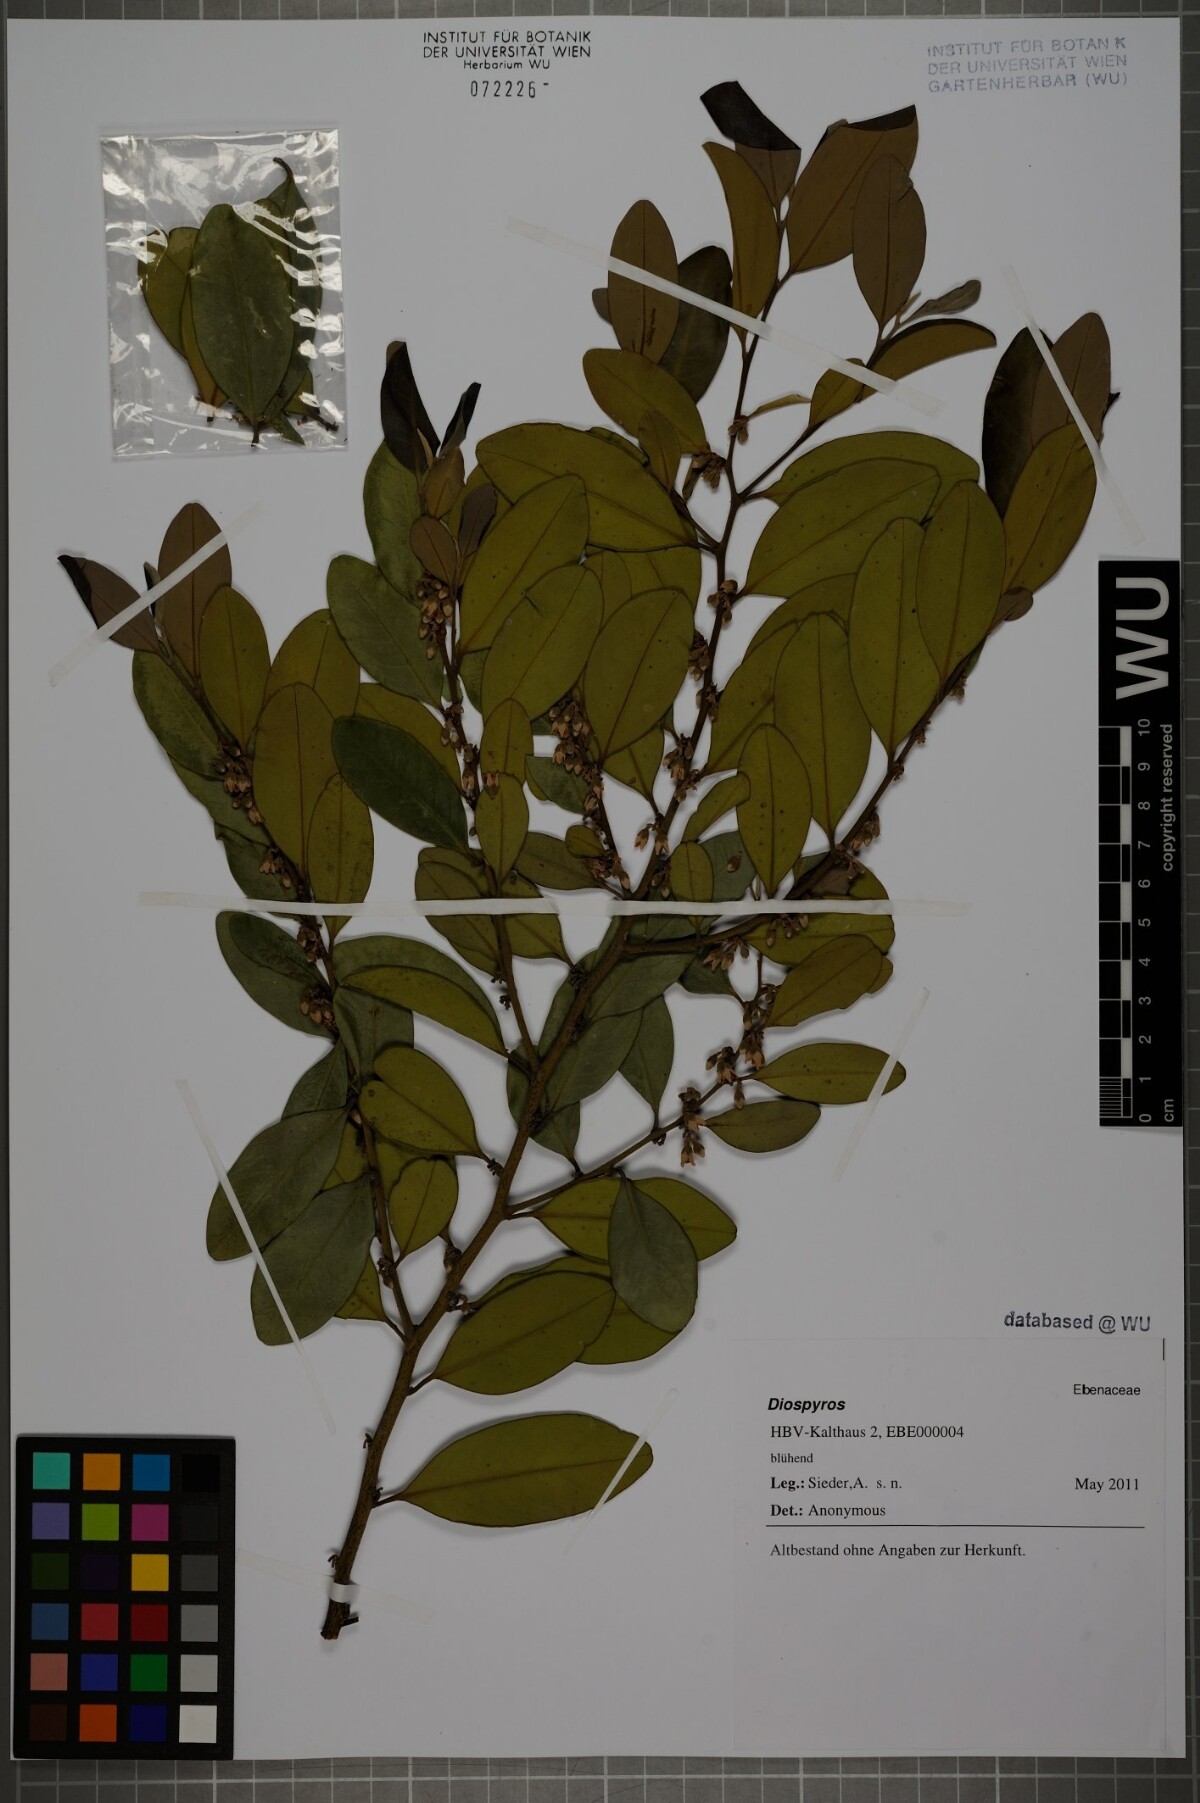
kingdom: Plantae
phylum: Tracheophyta
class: Magnoliopsida
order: Ericales
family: Ebenaceae
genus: Diospyros
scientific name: Diospyros pentamera
